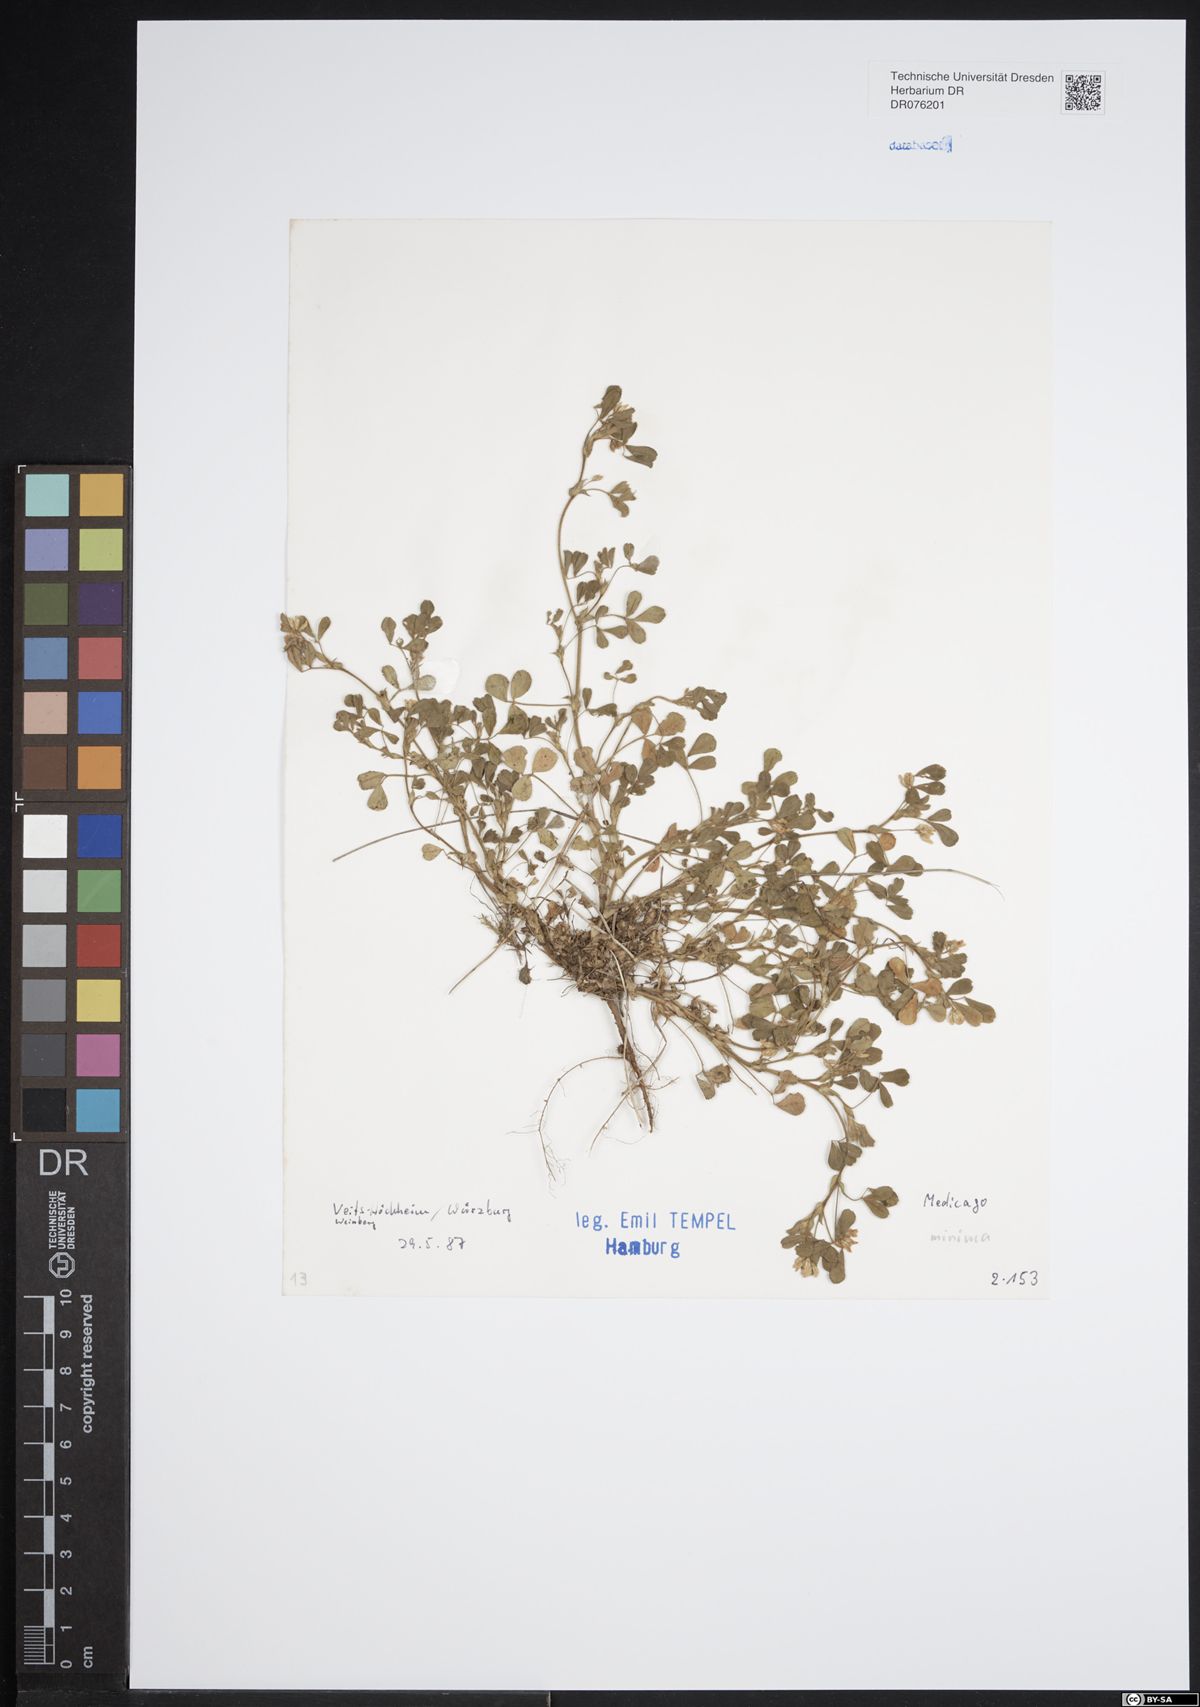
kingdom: Plantae
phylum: Tracheophyta
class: Magnoliopsida
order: Fabales
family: Fabaceae
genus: Medicago
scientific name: Medicago minima
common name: Little bur-clover
